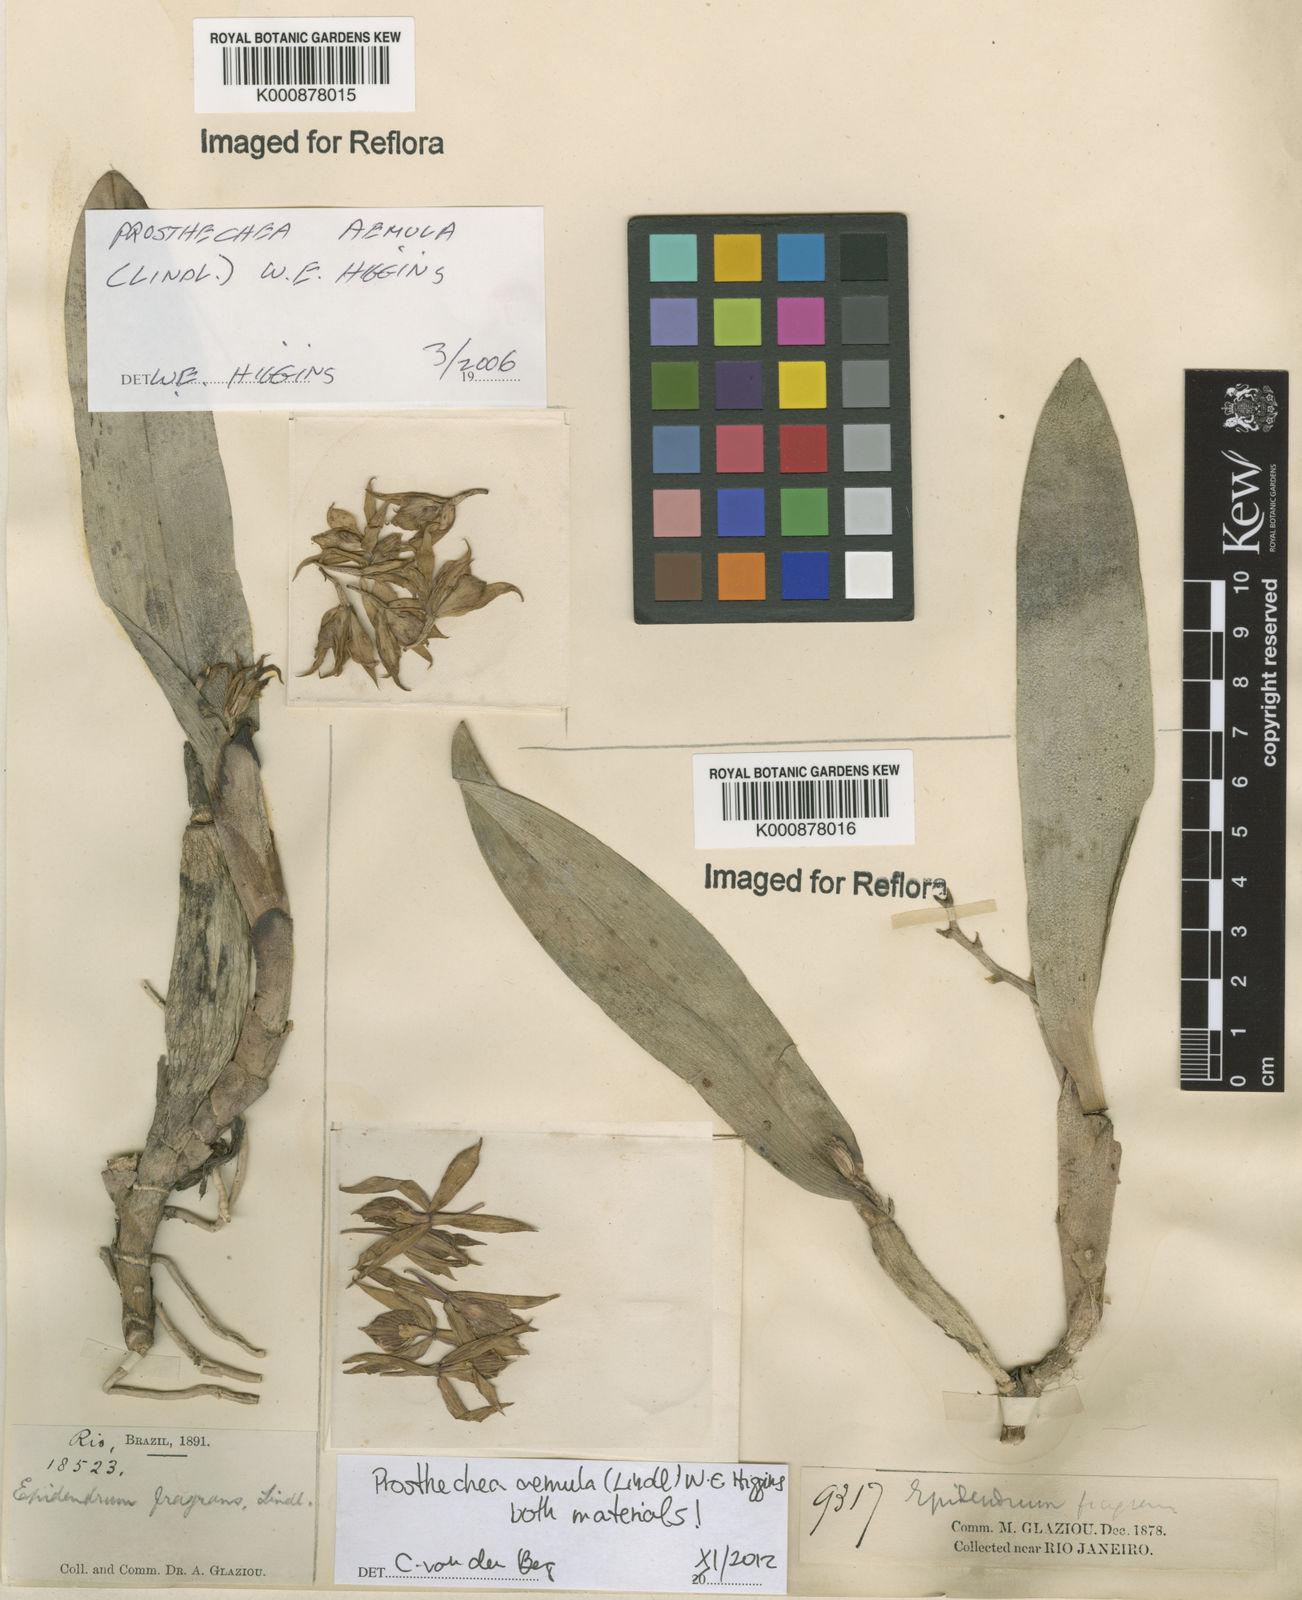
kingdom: Plantae
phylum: Tracheophyta
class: Liliopsida
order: Asparagales
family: Orchidaceae
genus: Prosthechea
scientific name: Prosthechea aemula
